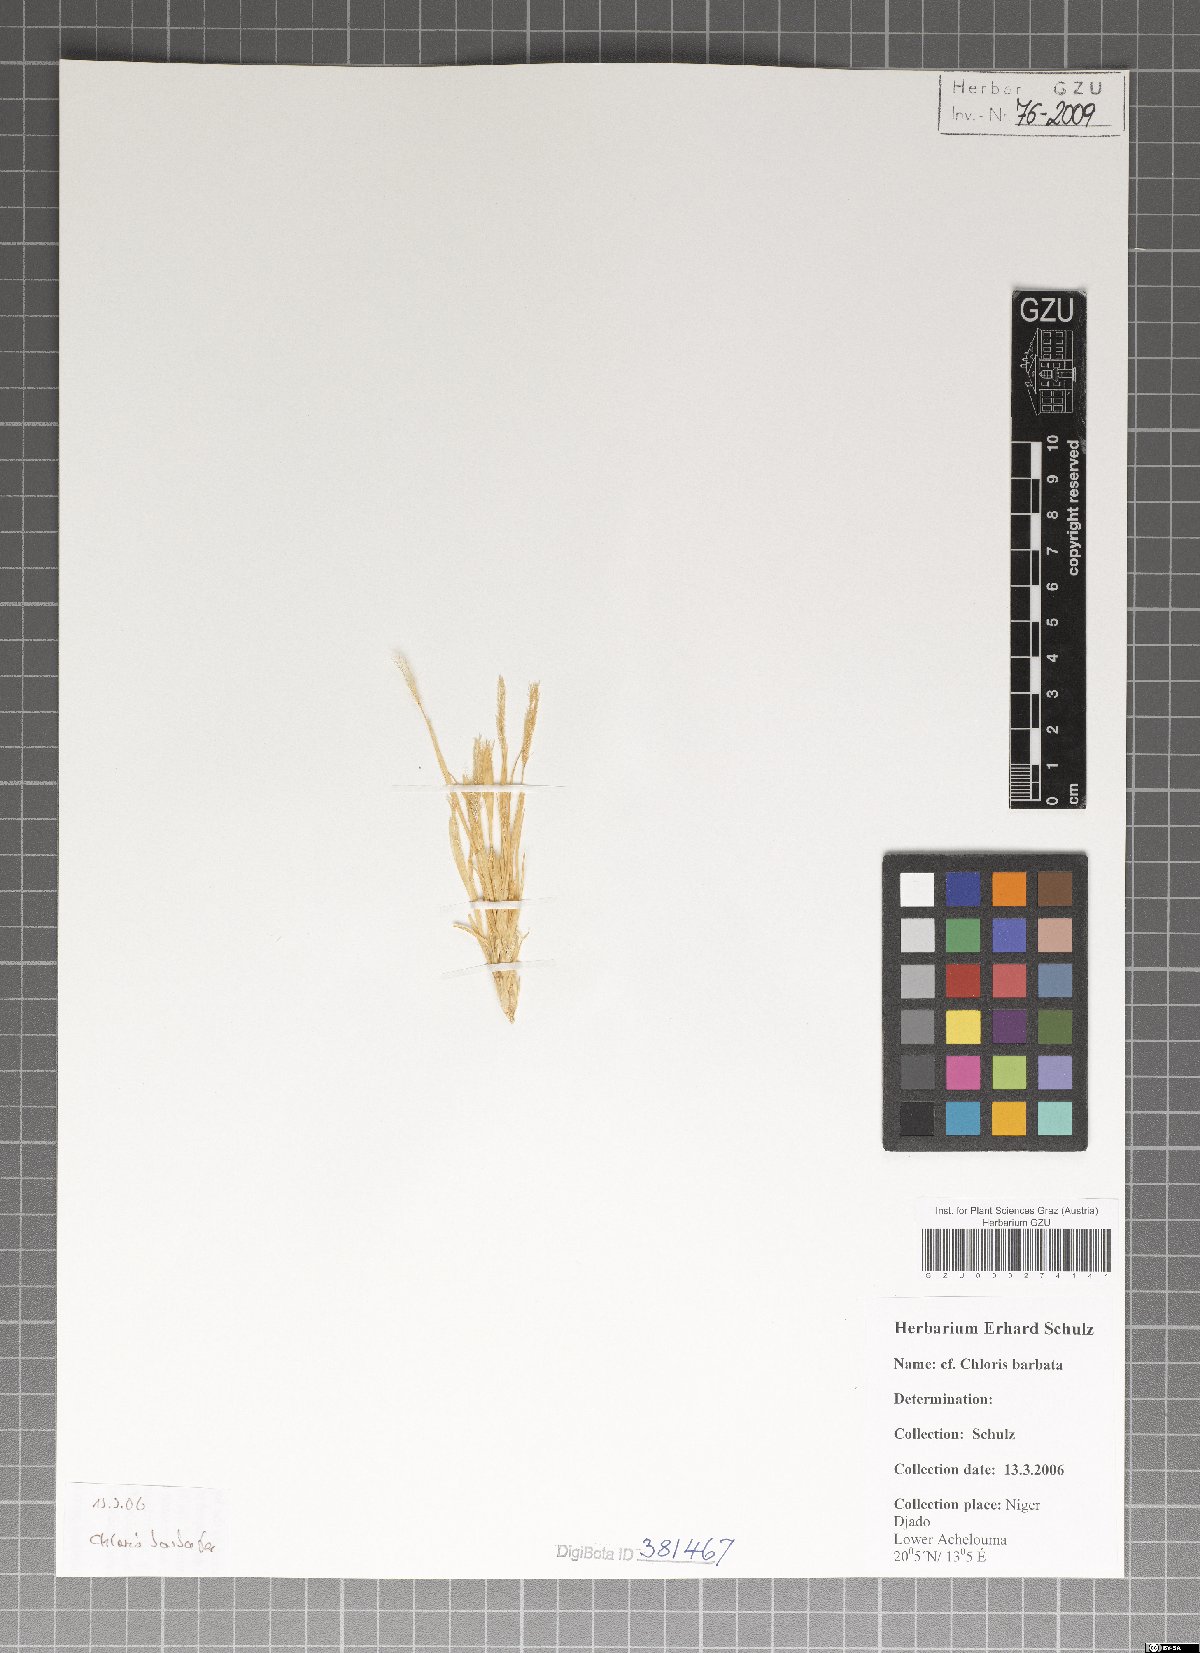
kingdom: Plantae
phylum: Tracheophyta
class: Liliopsida
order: Poales
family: Poaceae
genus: Chloris
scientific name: Chloris barbata
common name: Swollen fingergrass
